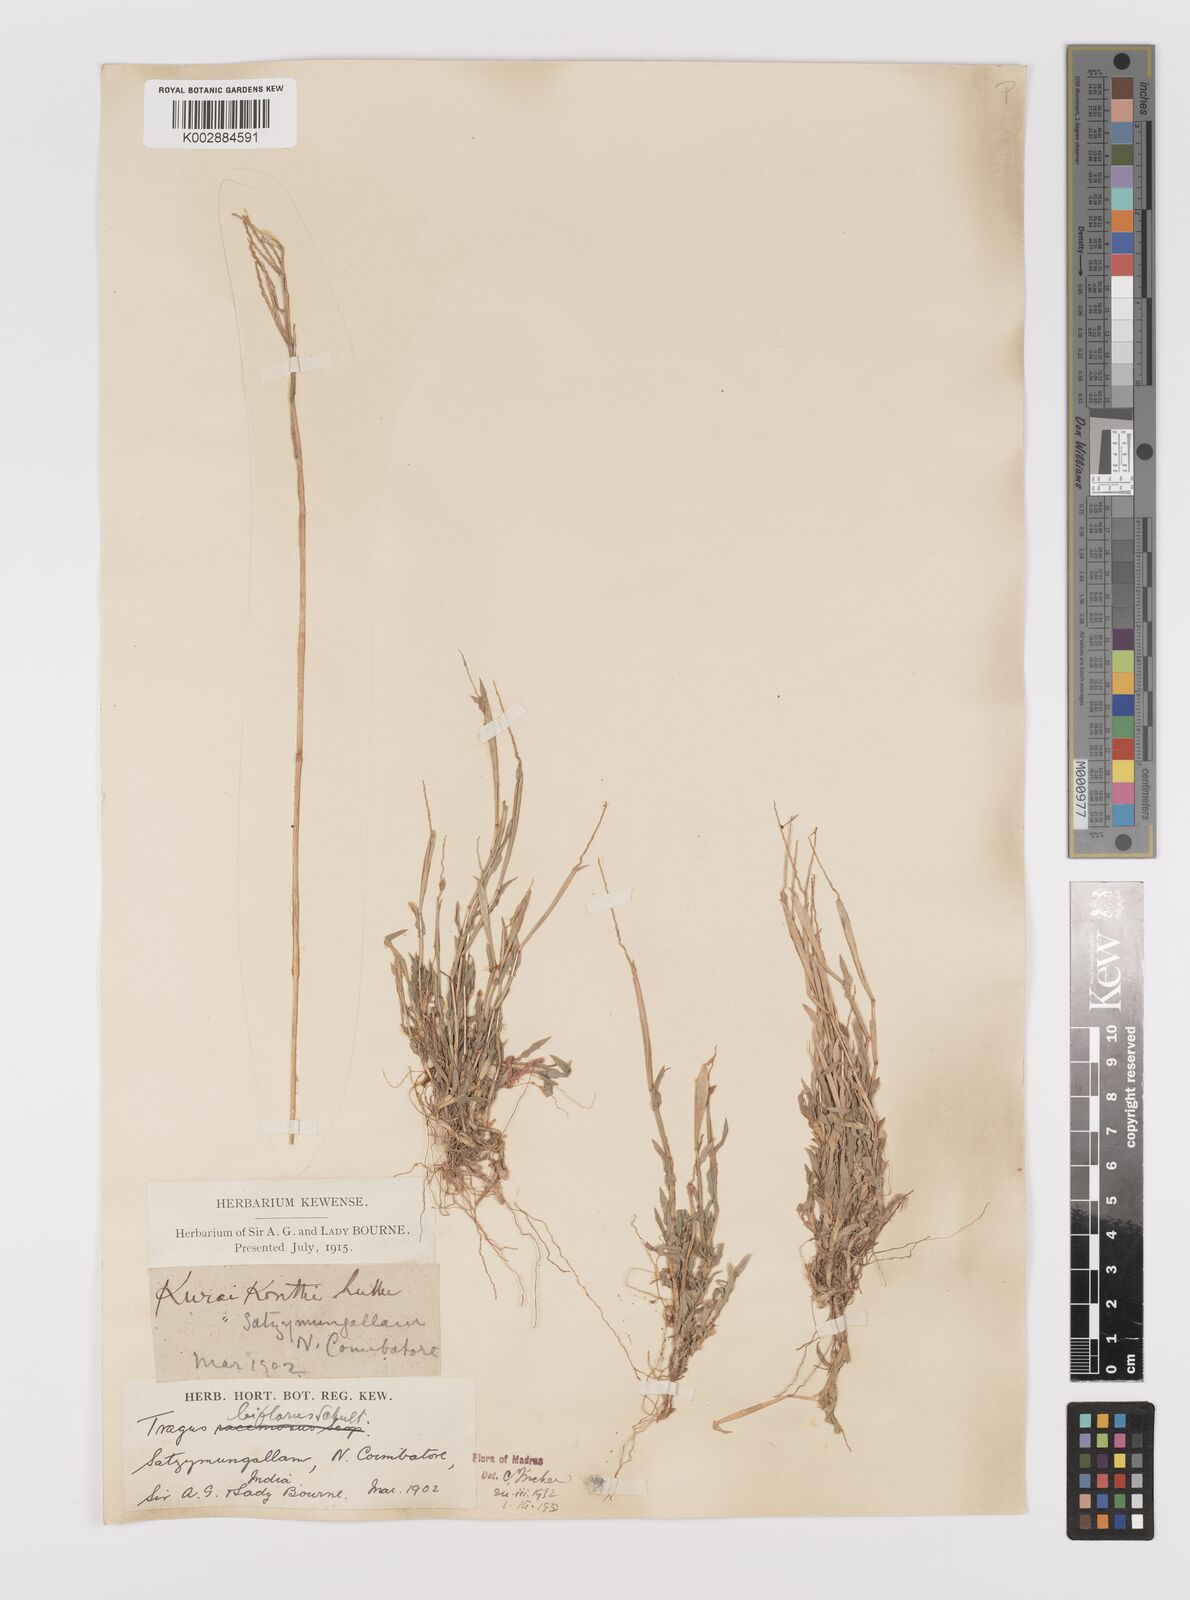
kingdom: Plantae
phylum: Tracheophyta
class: Liliopsida
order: Poales
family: Poaceae
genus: Tragus
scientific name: Tragus mongolorum
